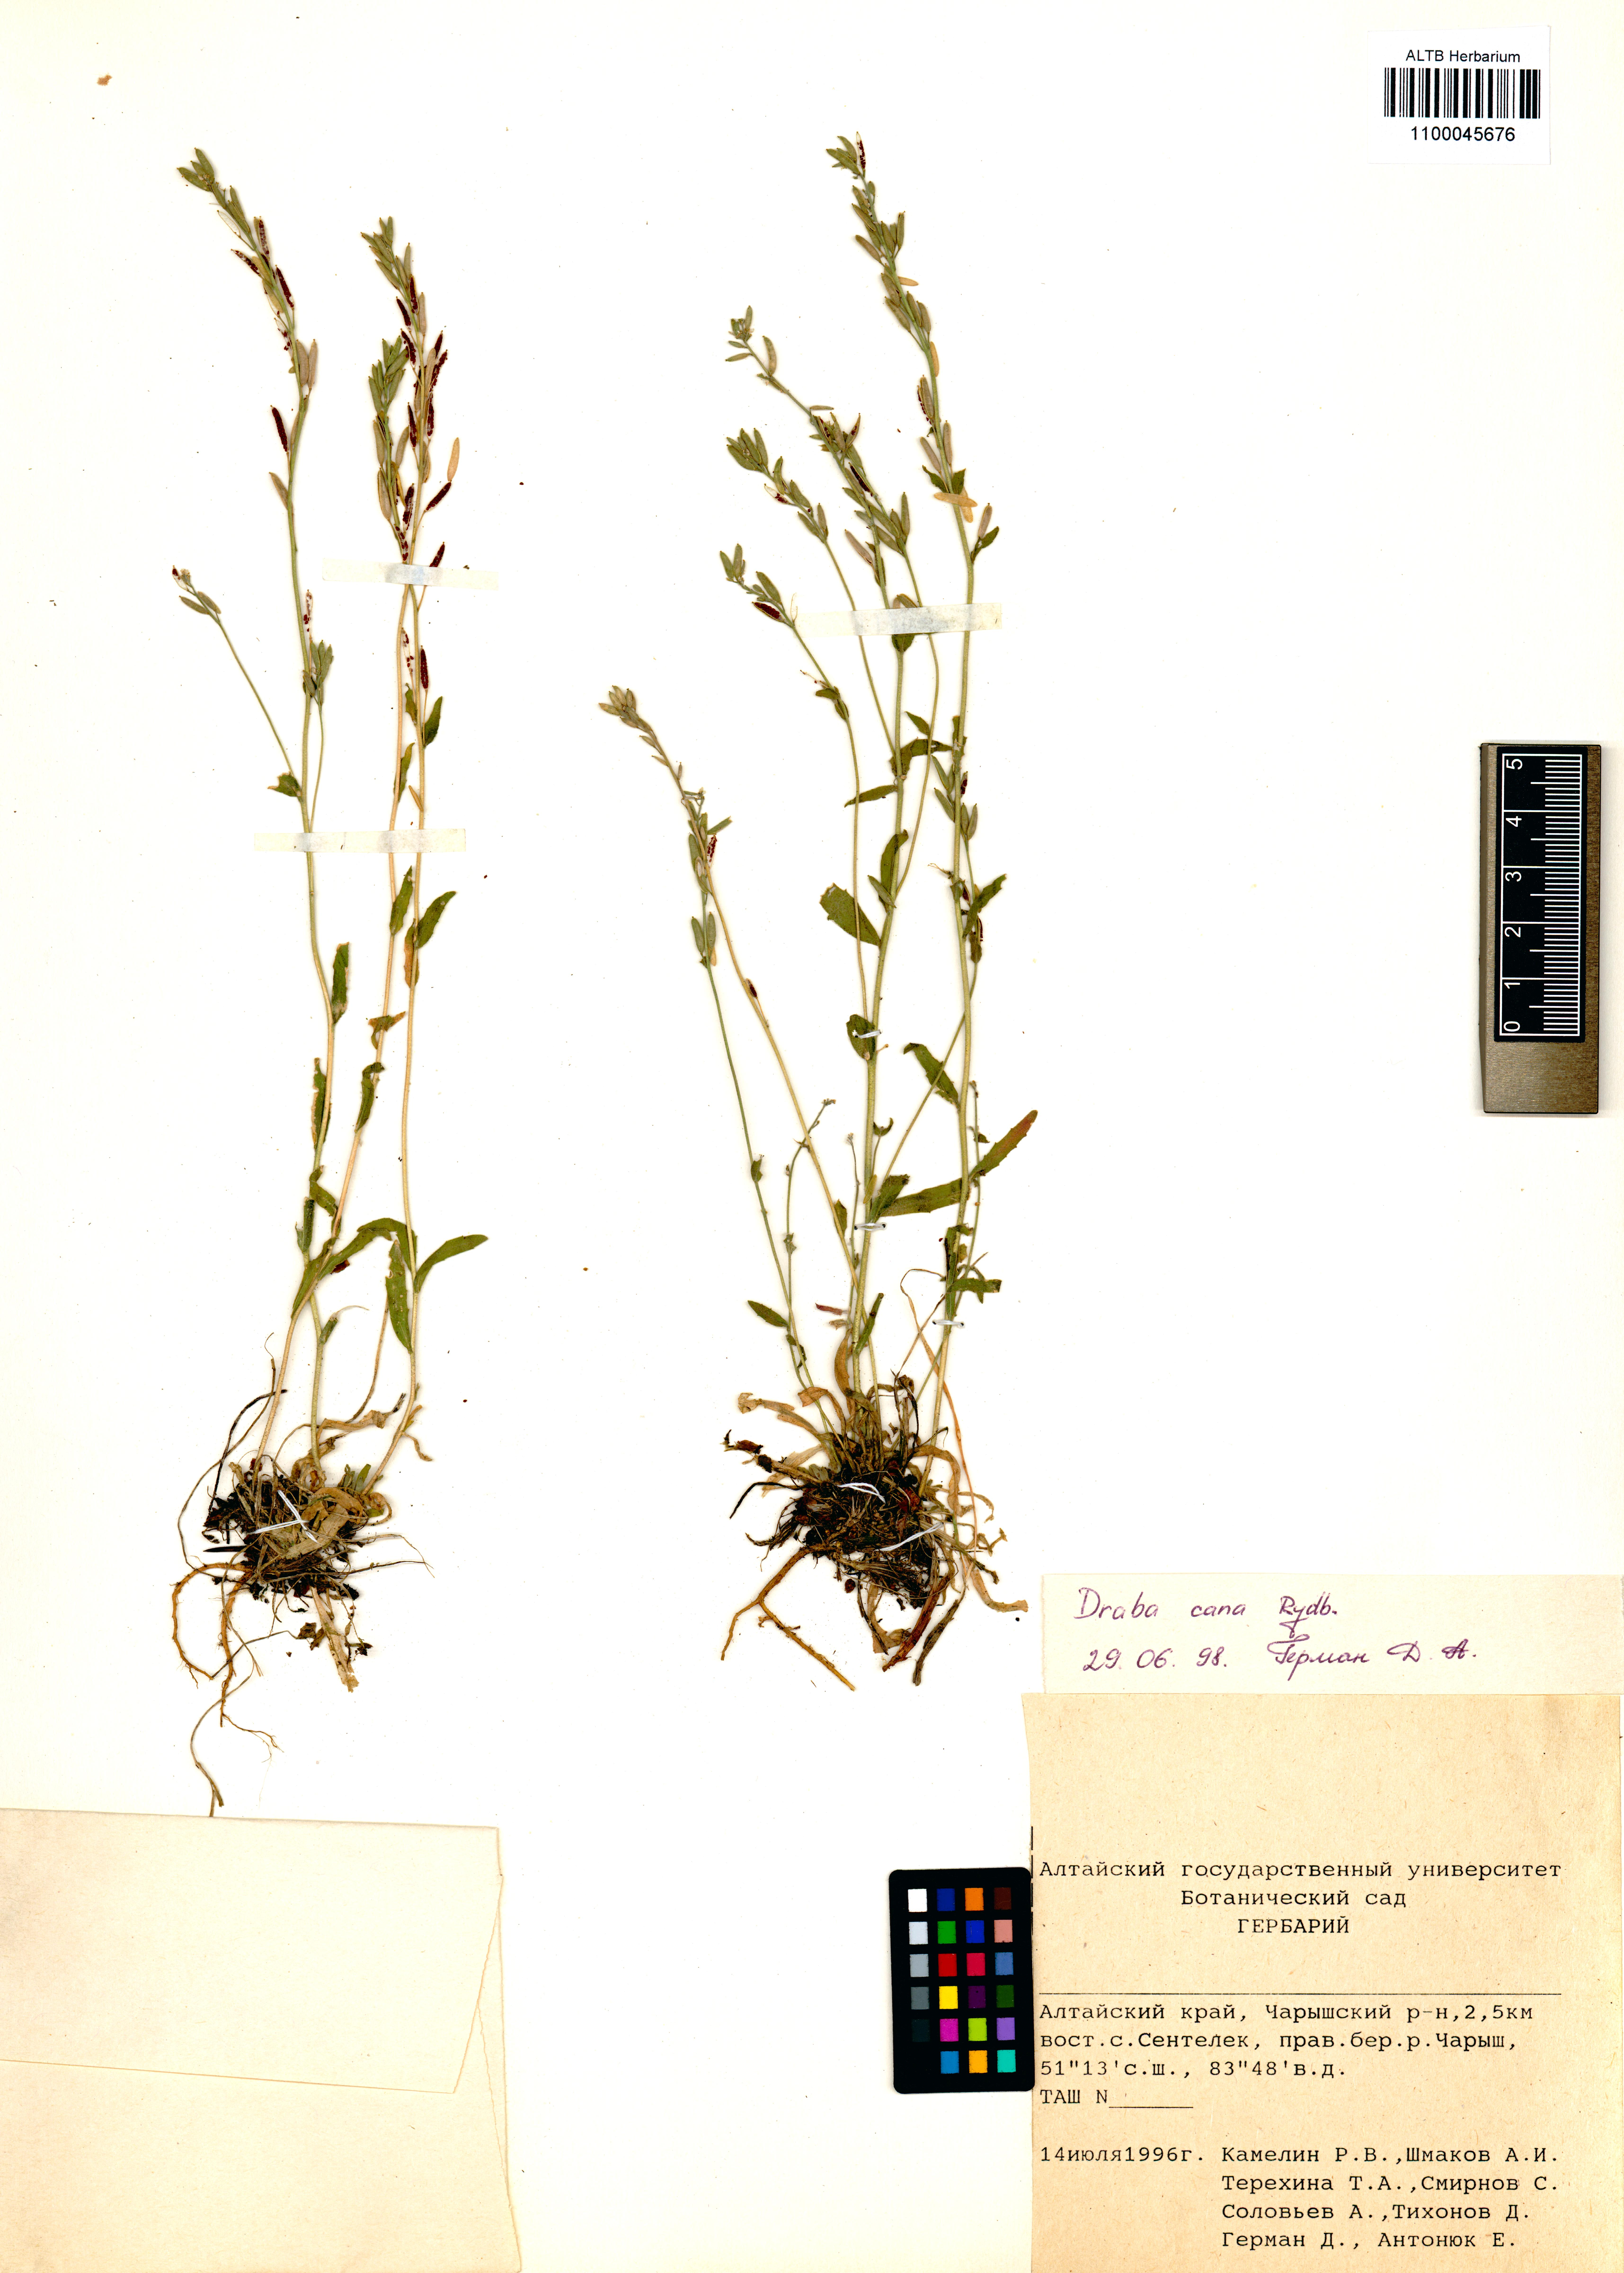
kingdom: Plantae
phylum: Tracheophyta
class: Magnoliopsida
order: Brassicales
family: Brassicaceae
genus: Draba
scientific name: Draba cana
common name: Hoary draba
